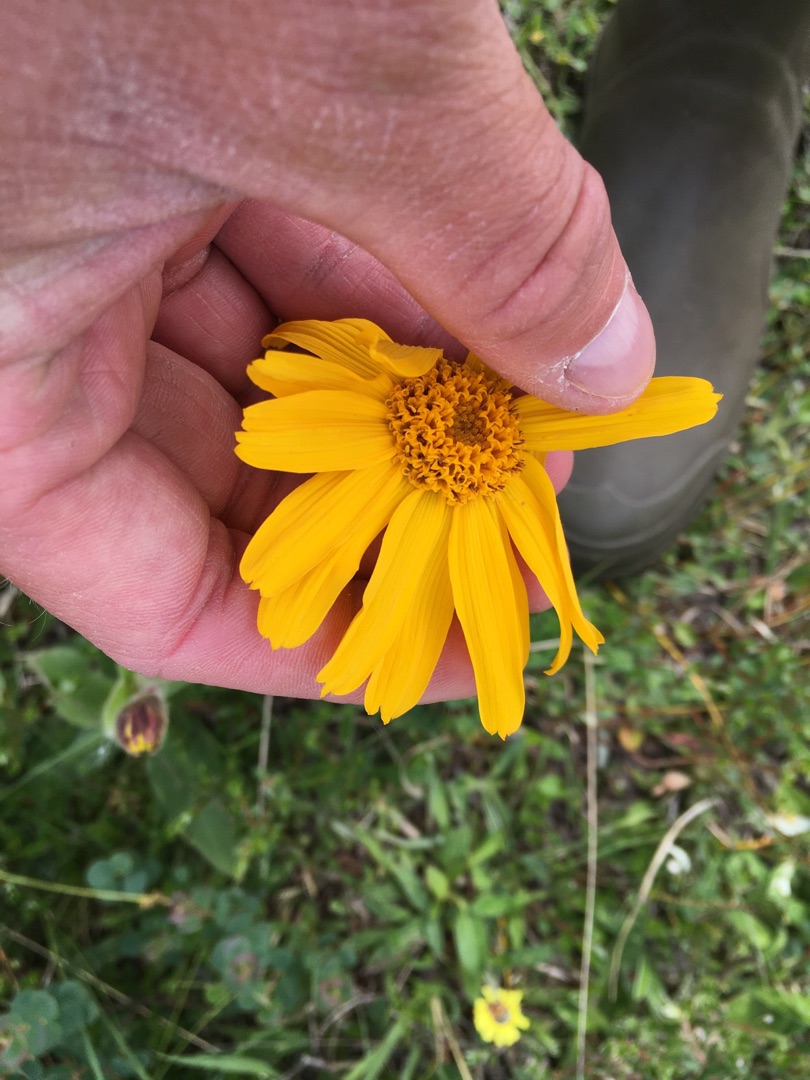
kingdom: Plantae
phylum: Tracheophyta
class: Magnoliopsida
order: Asterales
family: Asteraceae
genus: Arnica
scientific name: Arnica montana
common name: Guldblomme
